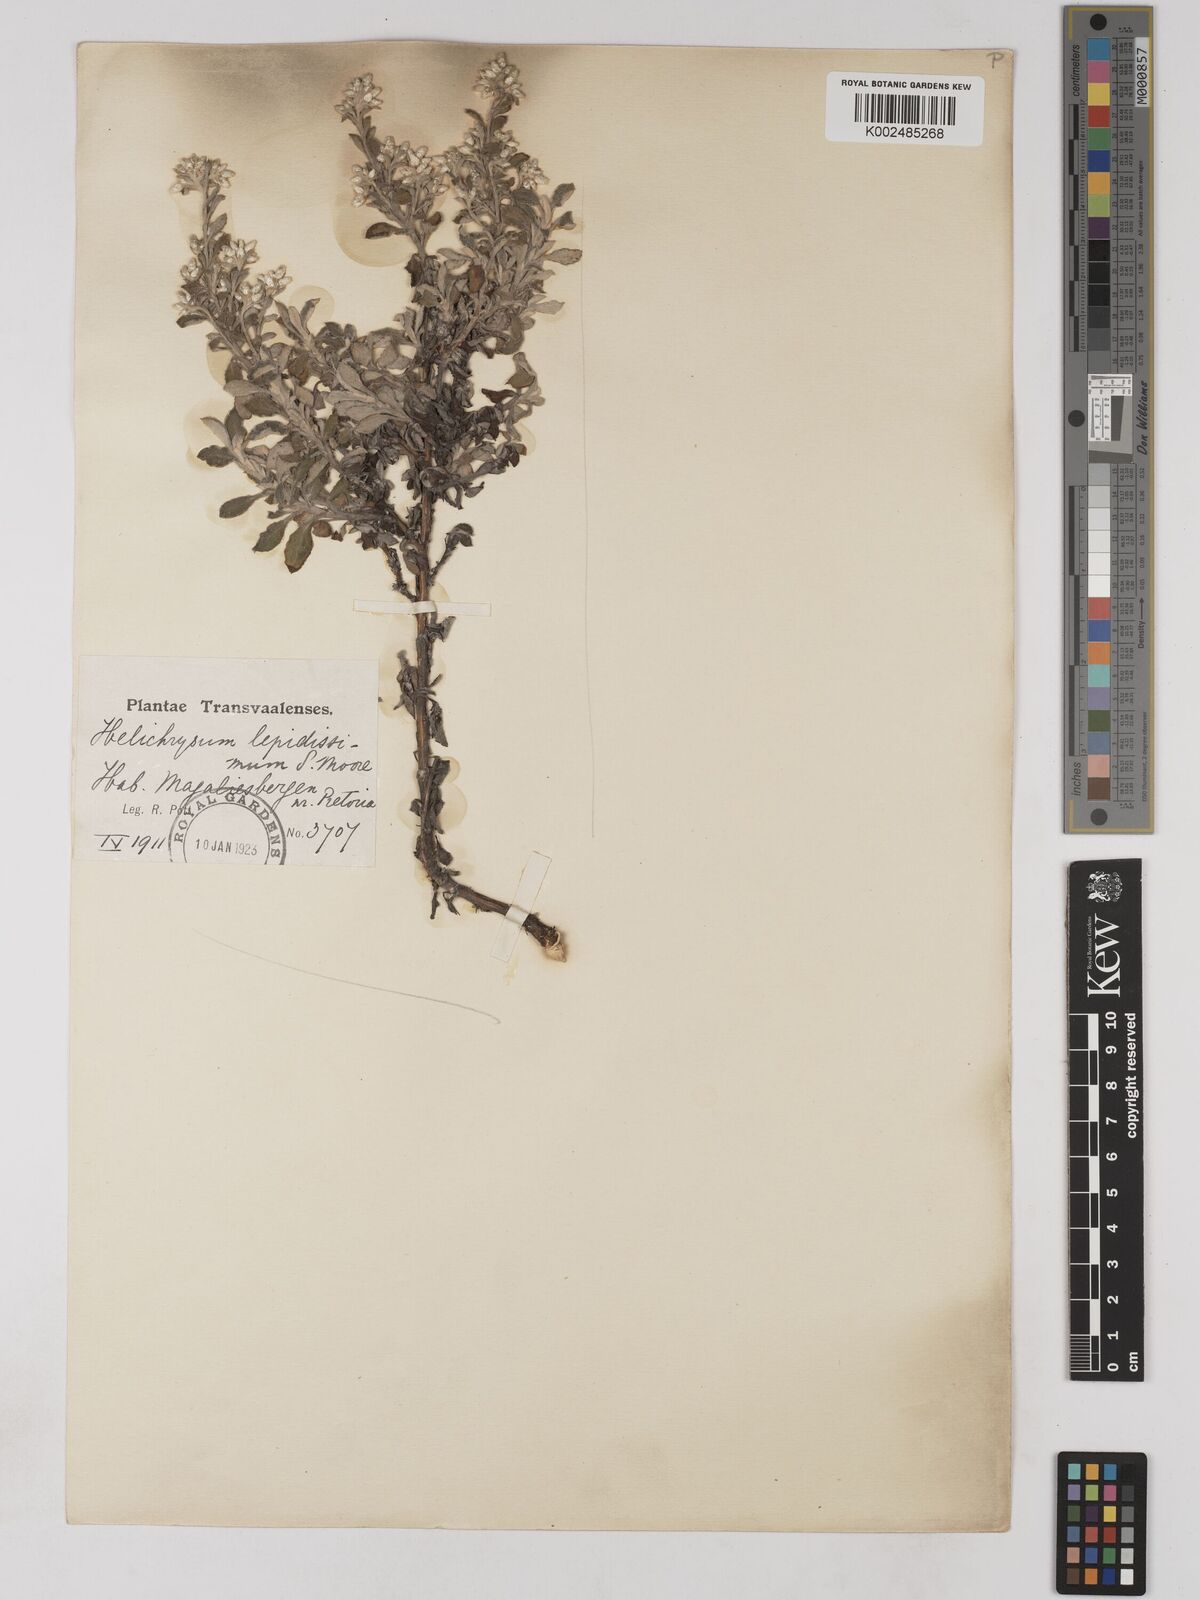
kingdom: Plantae
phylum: Tracheophyta
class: Magnoliopsida
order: Asterales
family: Asteraceae
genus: Helichrysum
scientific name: Helichrysum lepidissimum
